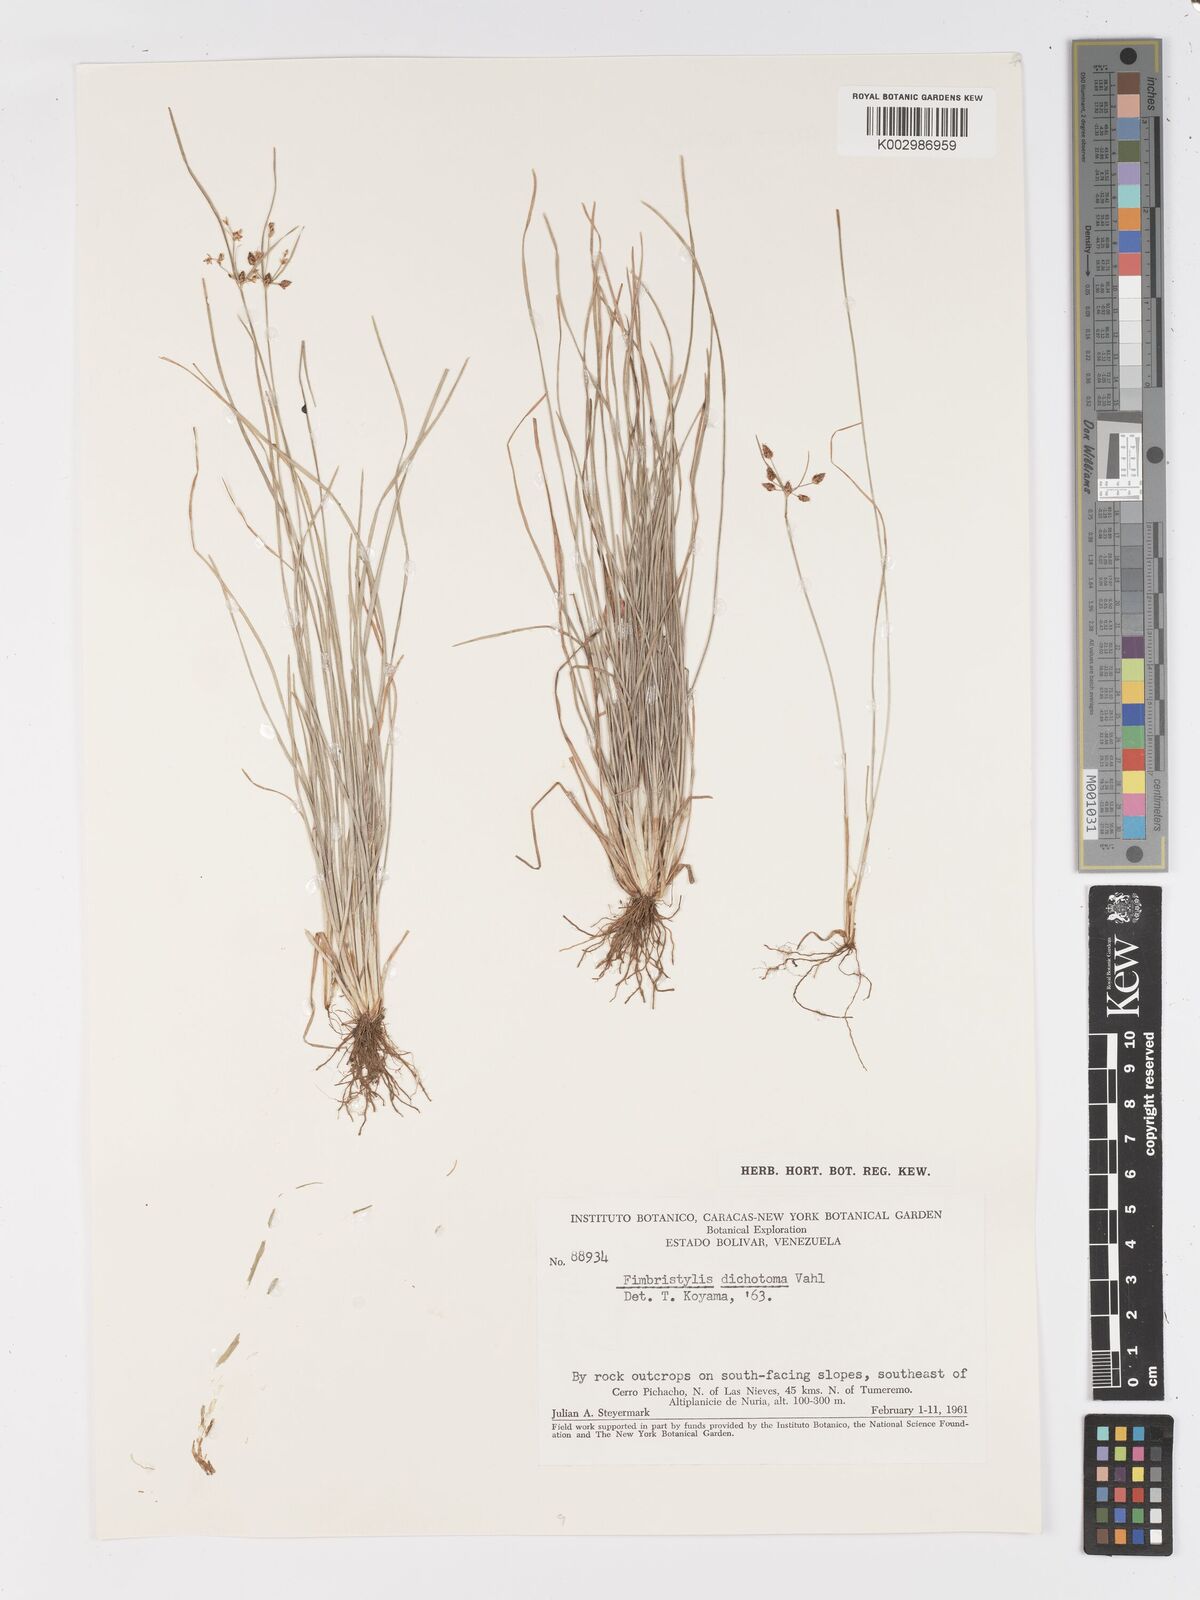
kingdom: Plantae
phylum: Tracheophyta
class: Liliopsida
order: Poales
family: Cyperaceae
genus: Fimbristylis
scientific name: Fimbristylis dichotoma
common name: Forked fimbry
